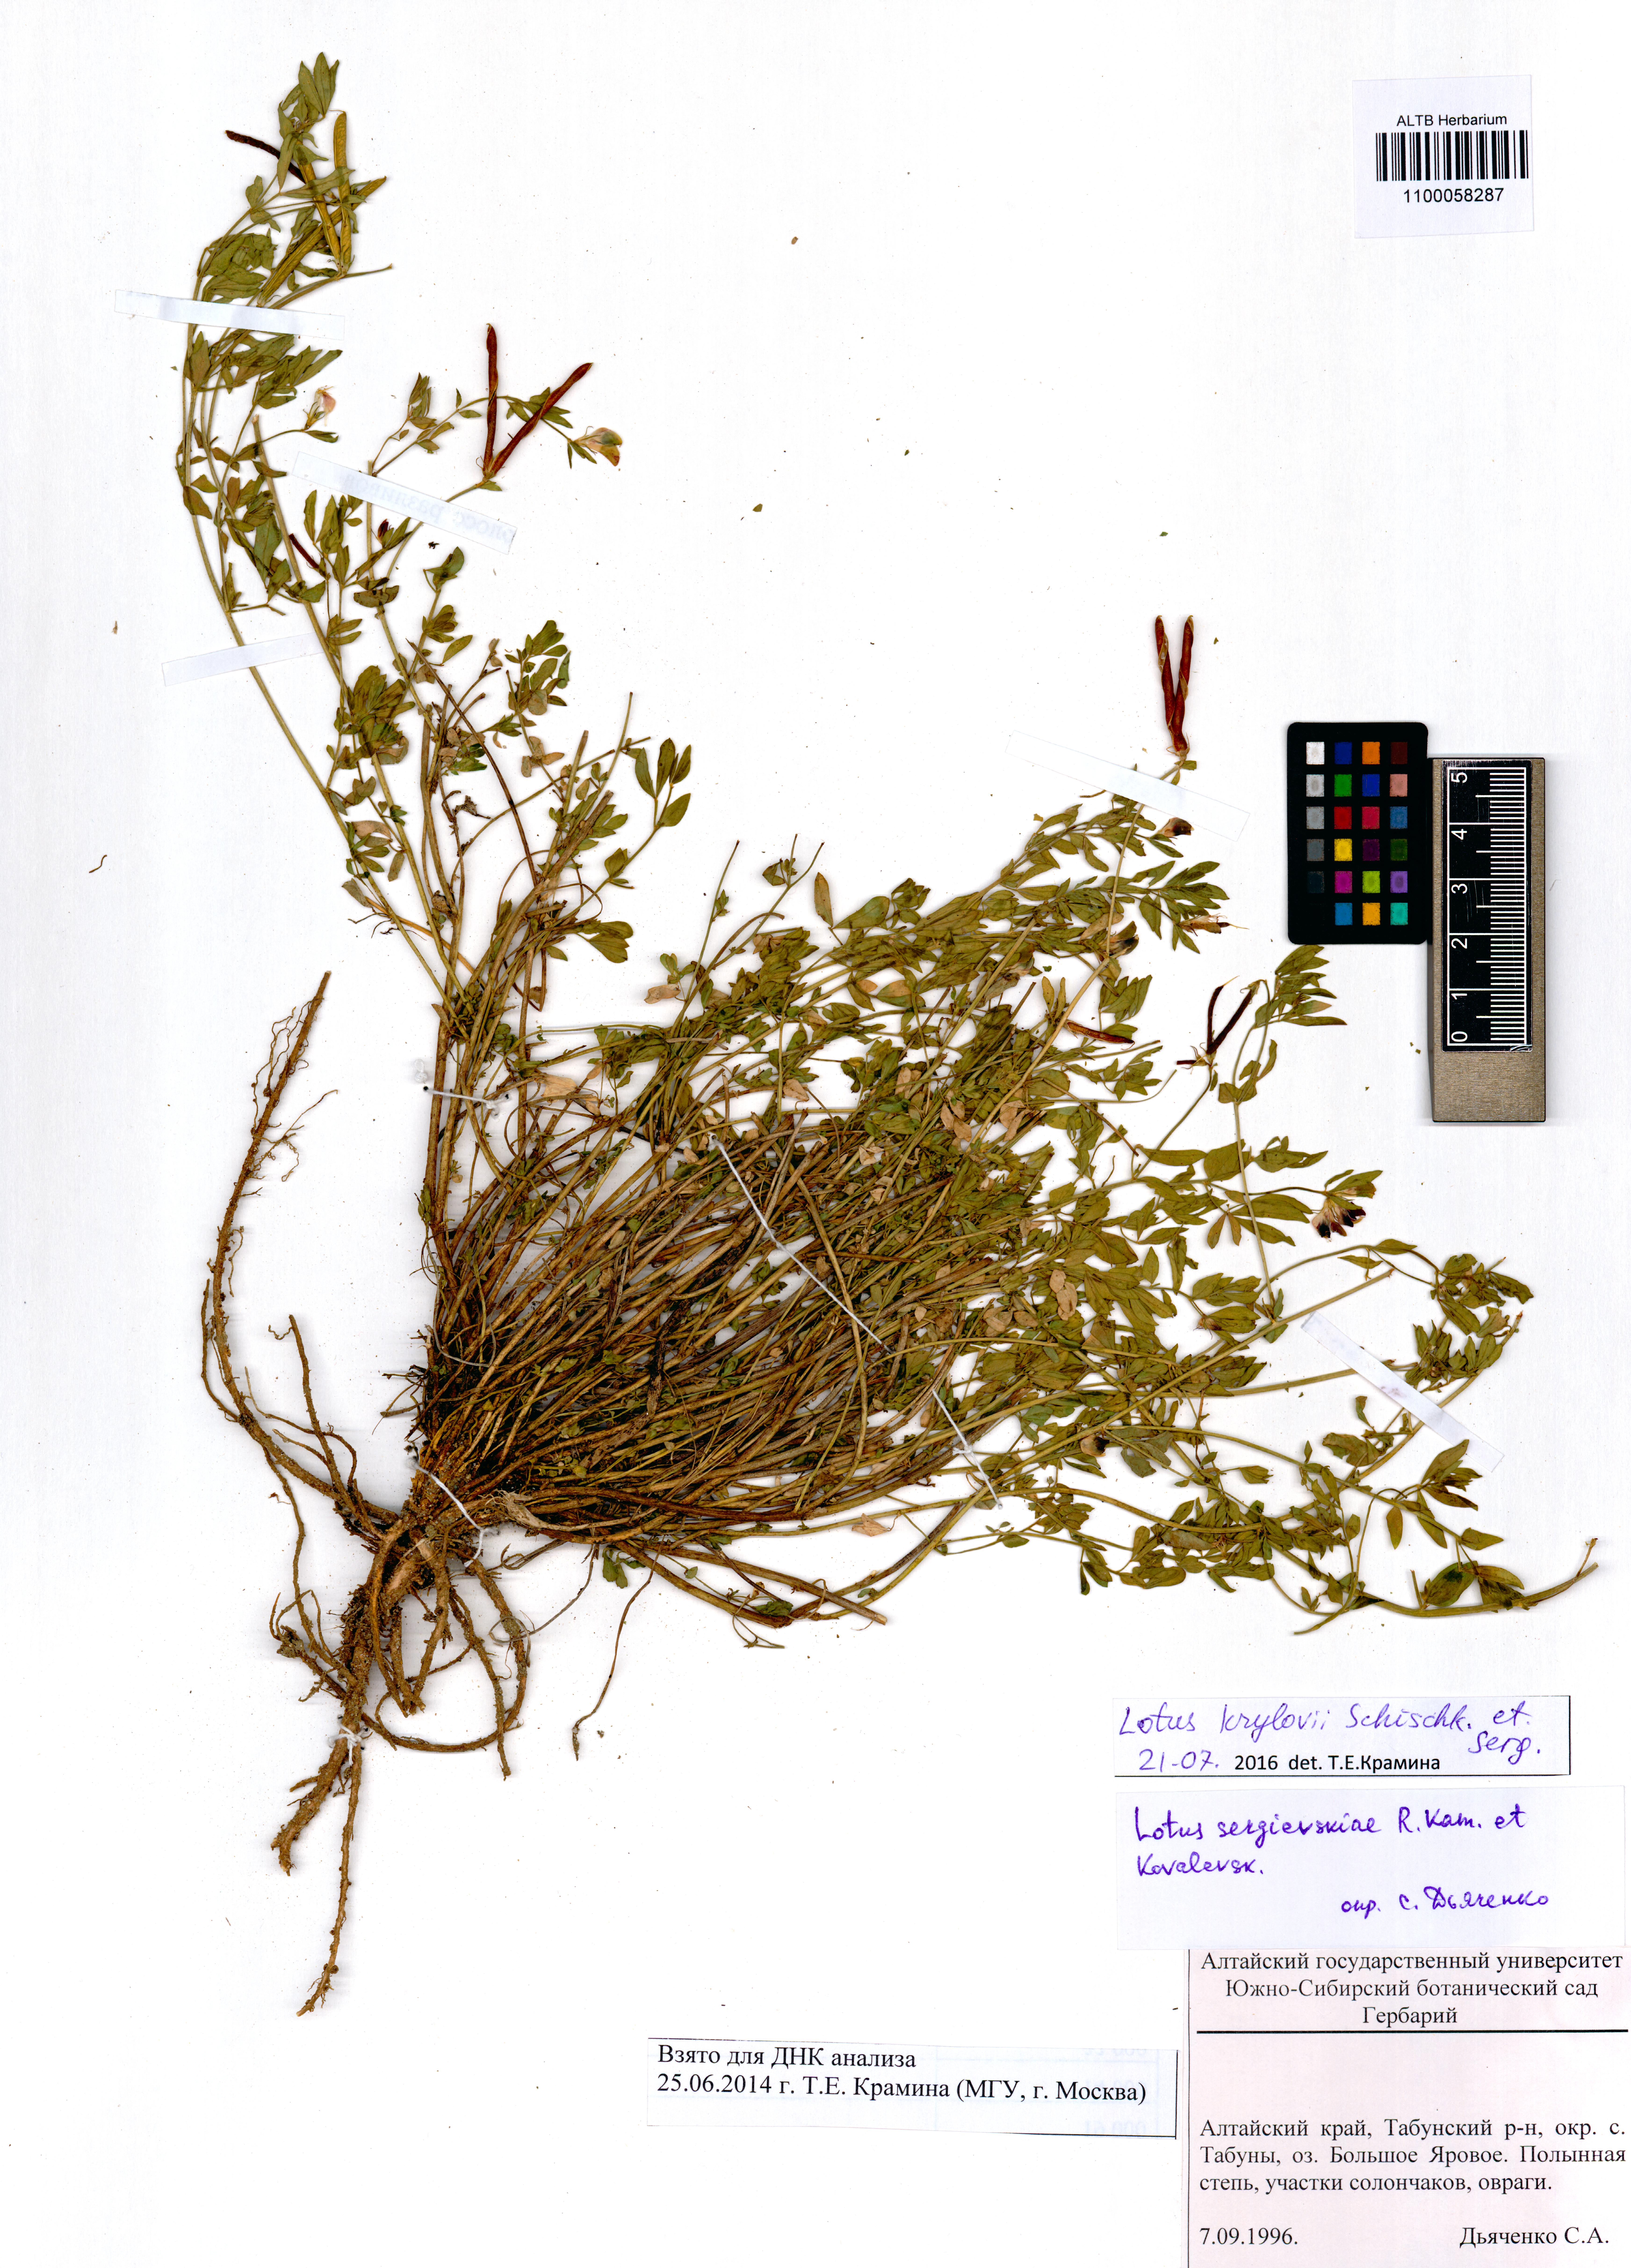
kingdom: Plantae
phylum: Tracheophyta
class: Magnoliopsida
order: Fabales
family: Fabaceae
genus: Lotus
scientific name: Lotus krylovii
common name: Krylov's bird's-foot trefoil
